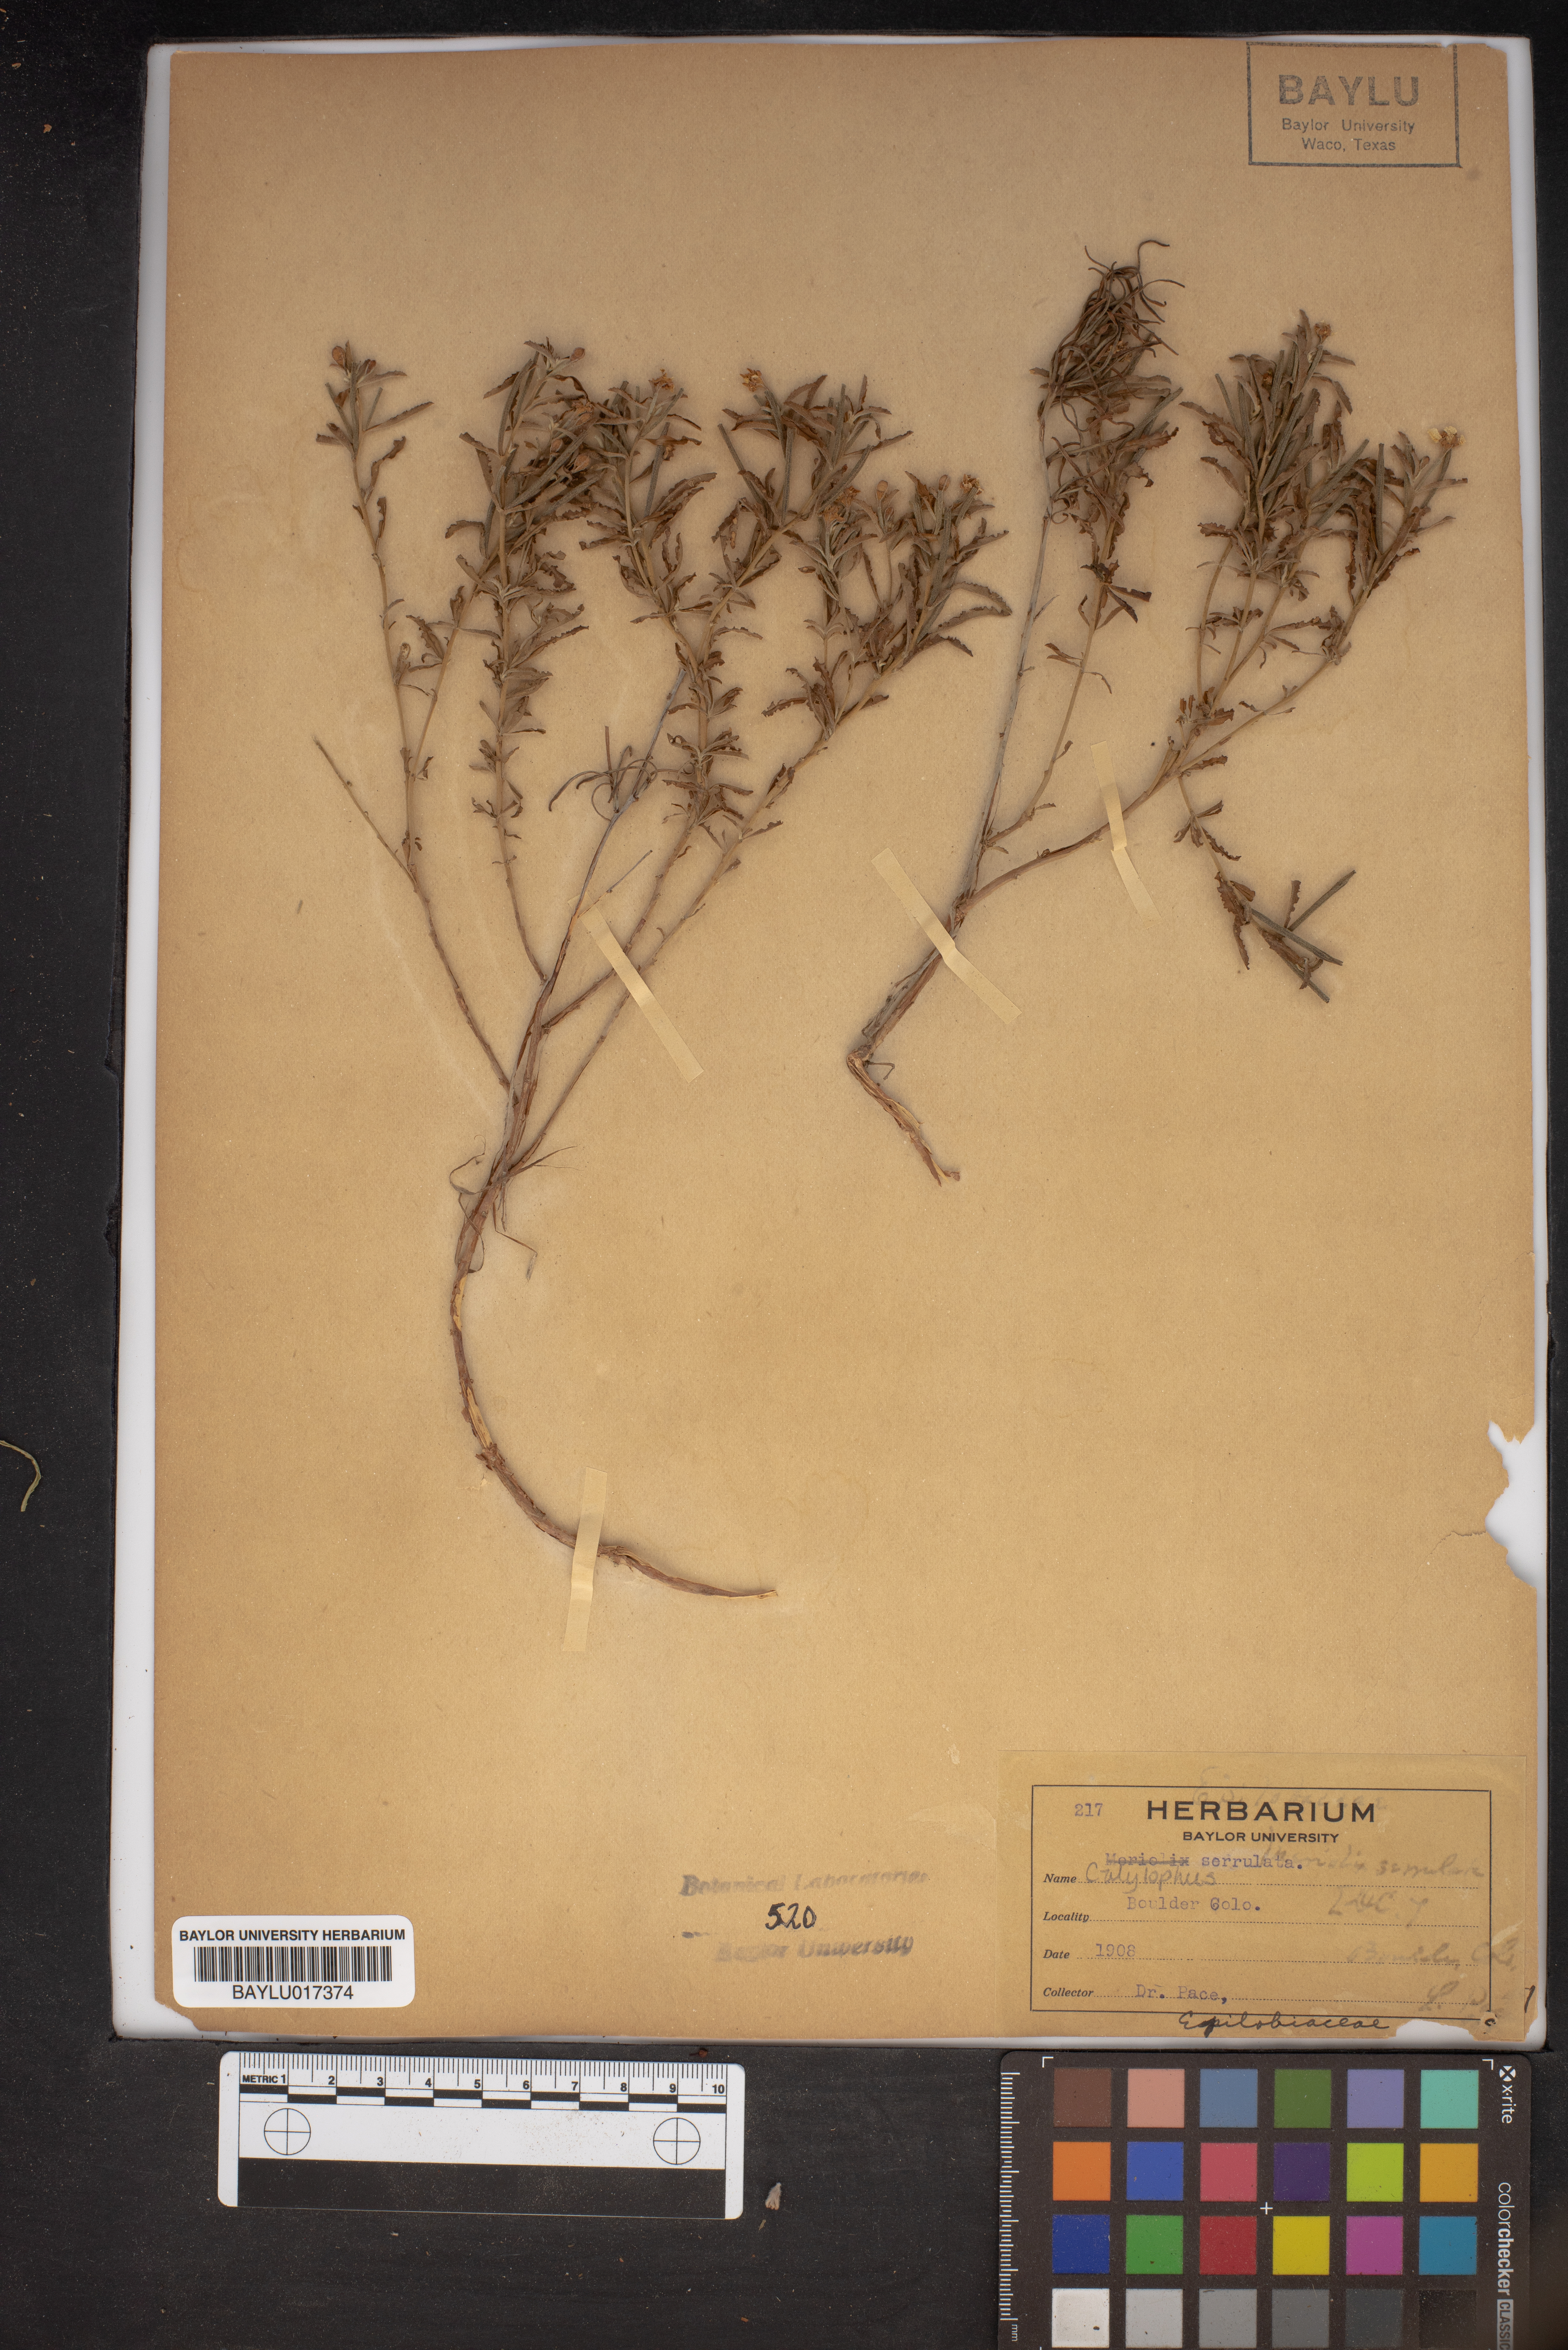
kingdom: Plantae
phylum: Tracheophyta
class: Magnoliopsida
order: Myrtales
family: Onagraceae
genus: Oenothera
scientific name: Oenothera serrulata
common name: Half-shrub calylophus
